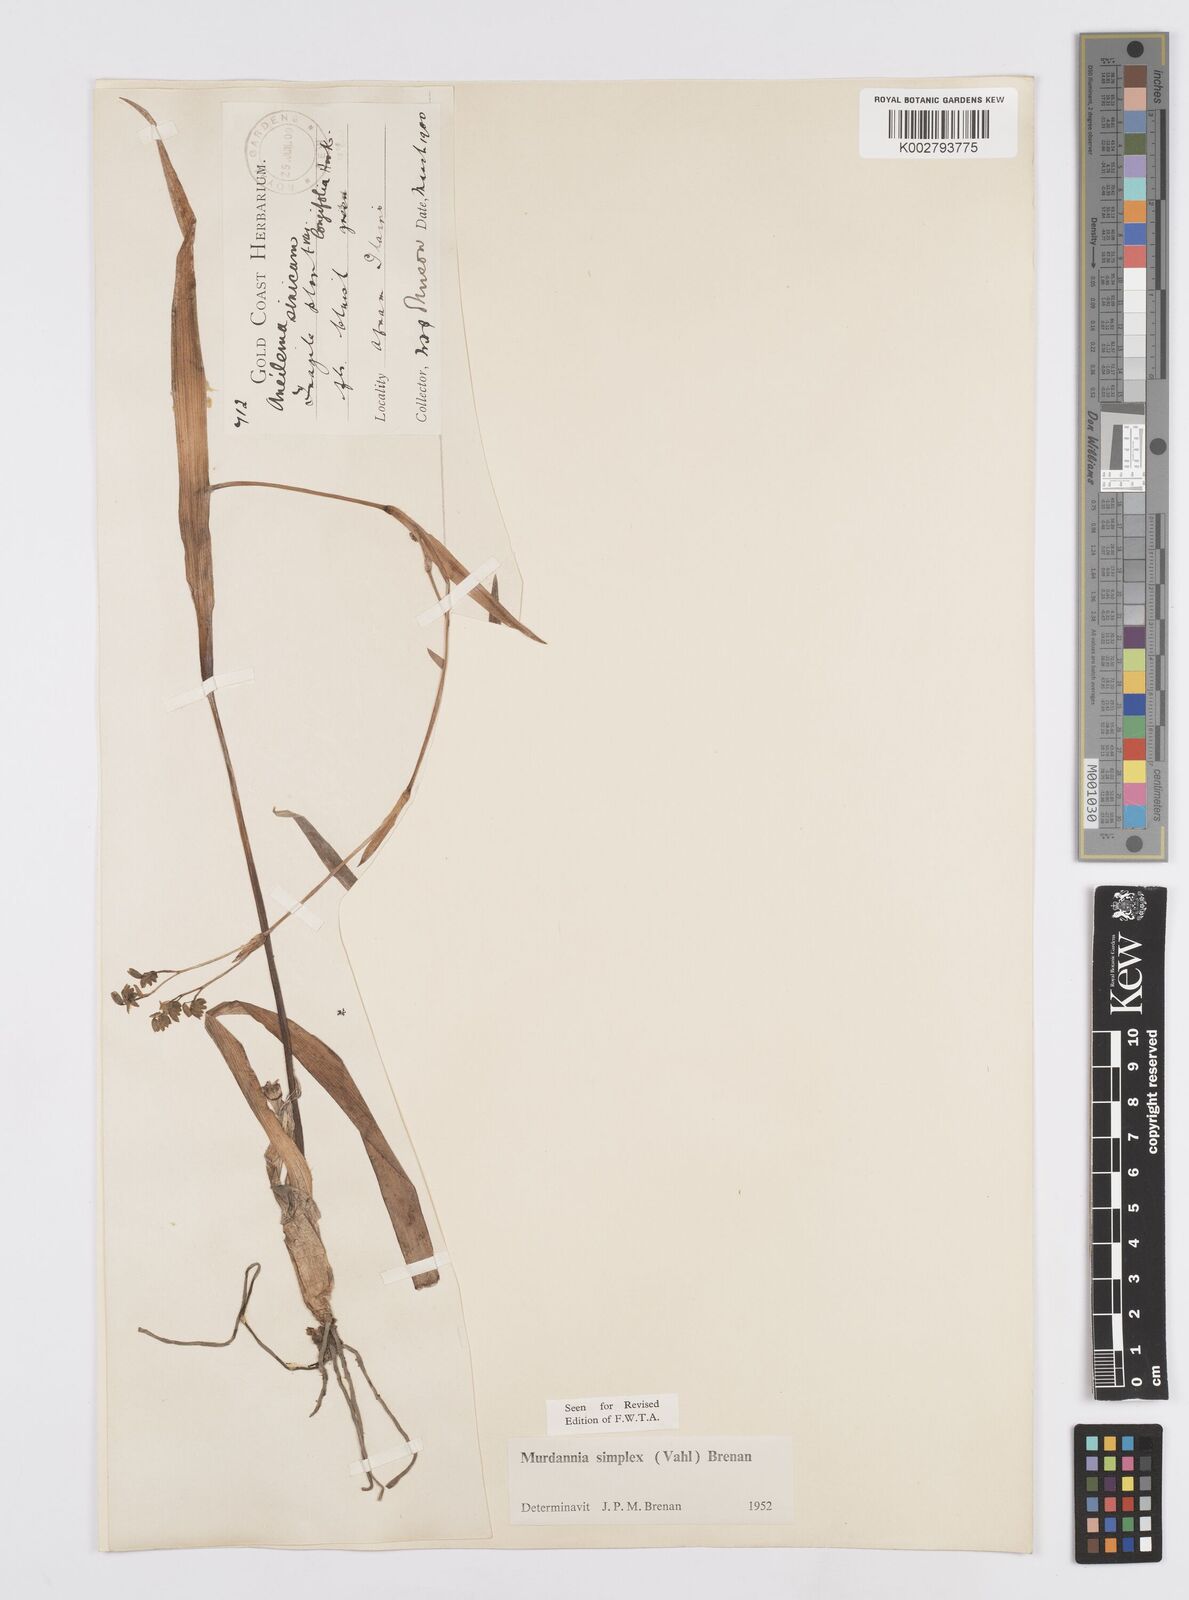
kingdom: Plantae
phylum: Tracheophyta
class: Liliopsida
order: Commelinales
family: Commelinaceae
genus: Murdannia
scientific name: Murdannia simplex
